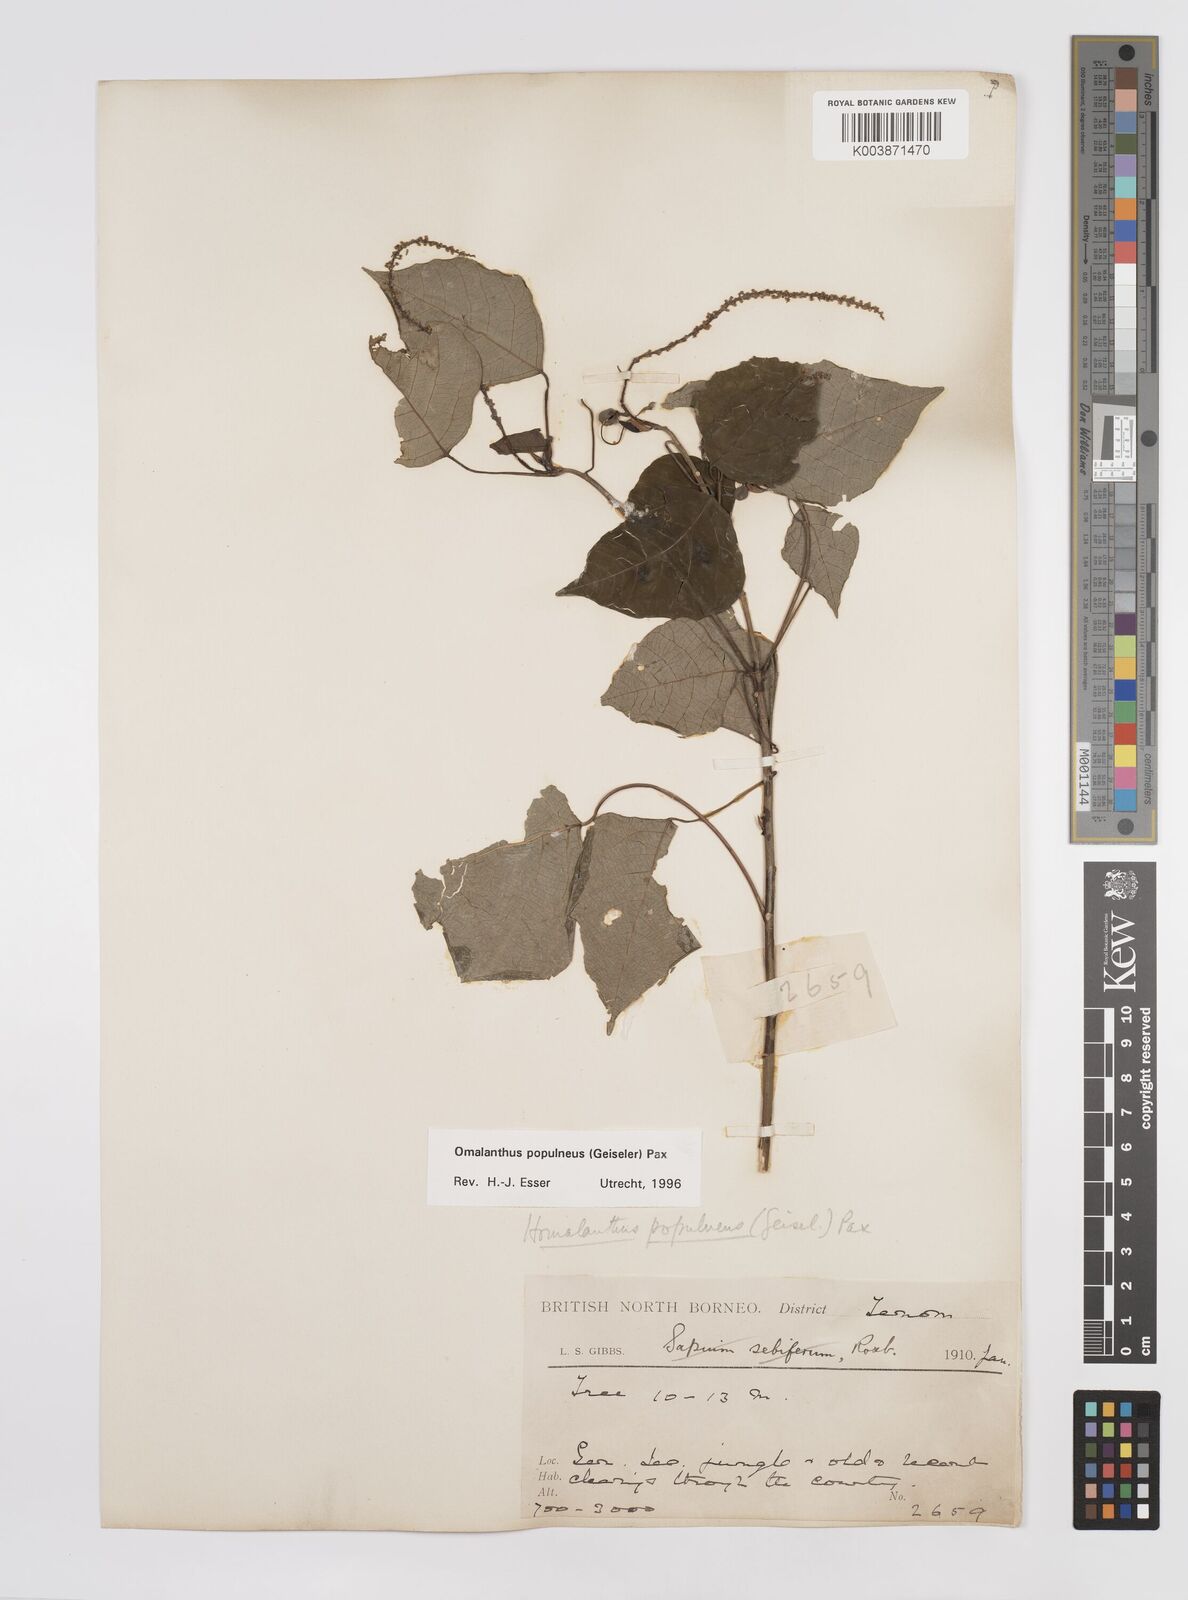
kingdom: Plantae
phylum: Tracheophyta
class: Magnoliopsida
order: Malpighiales
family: Euphorbiaceae
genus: Homalanthus
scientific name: Homalanthus populneus
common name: Spurge
